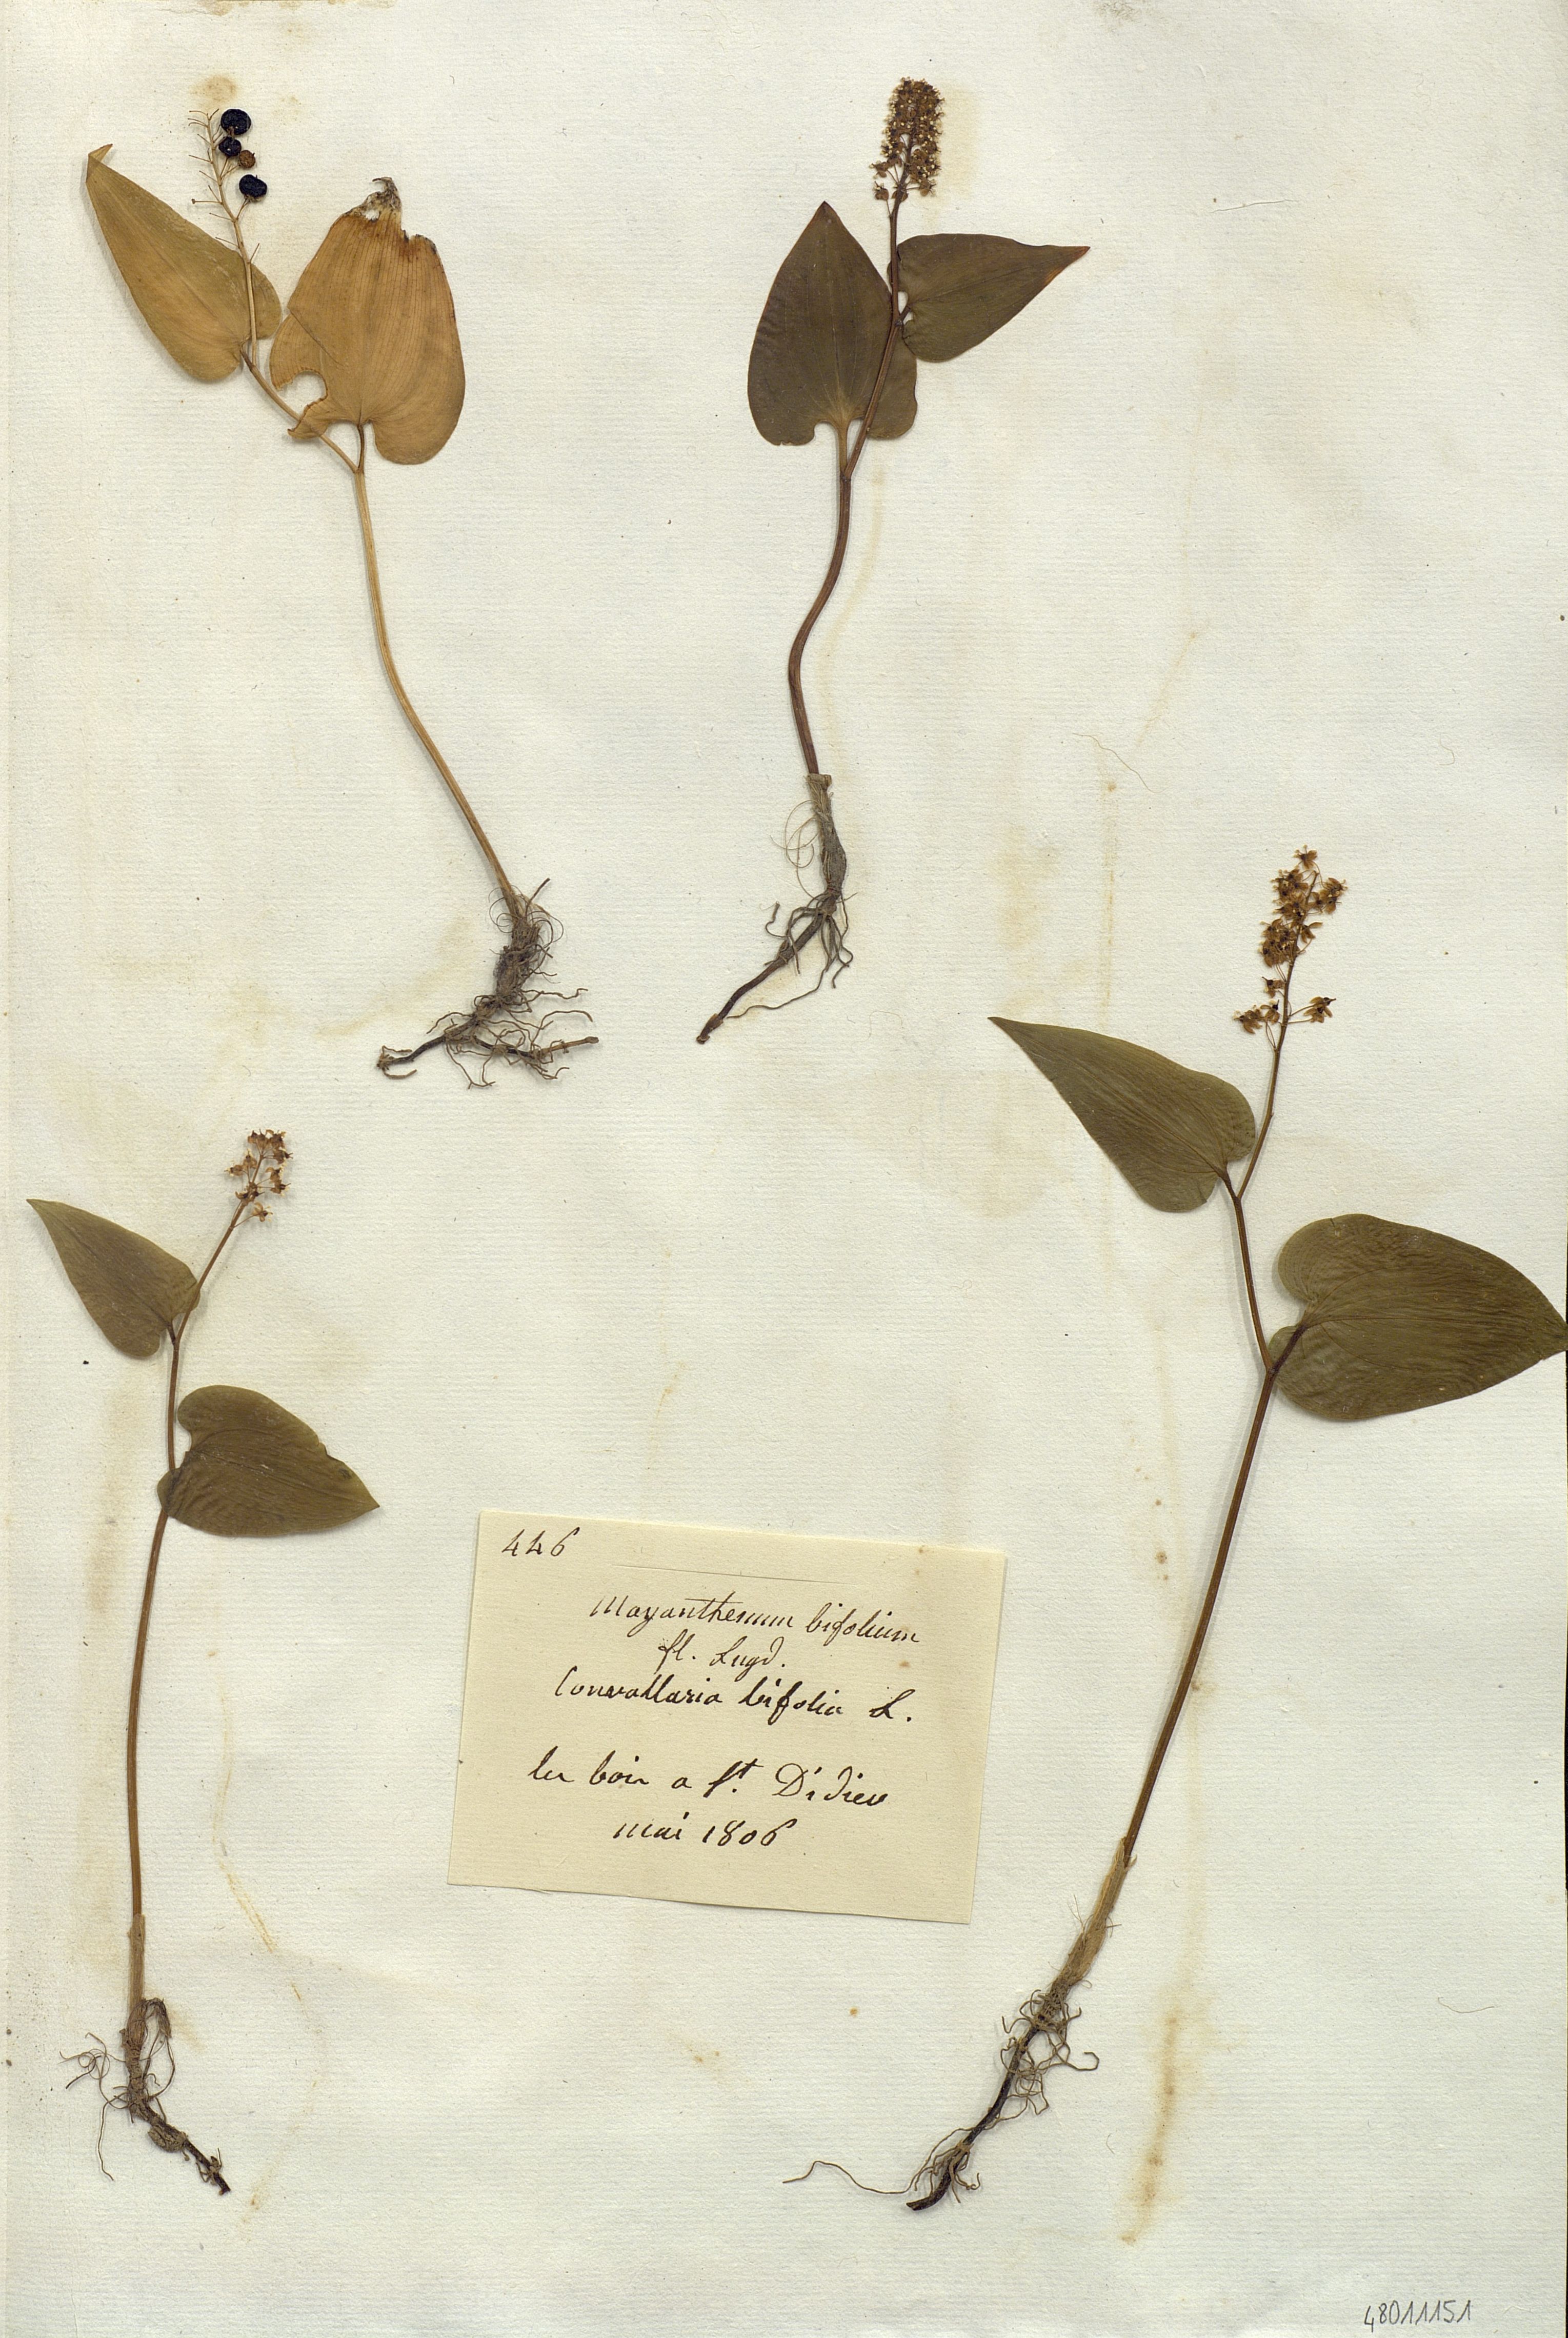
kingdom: Plantae
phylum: Tracheophyta
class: Liliopsida
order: Liliales
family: Liliaceae
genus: Mayanthemum
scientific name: Mayanthemum
